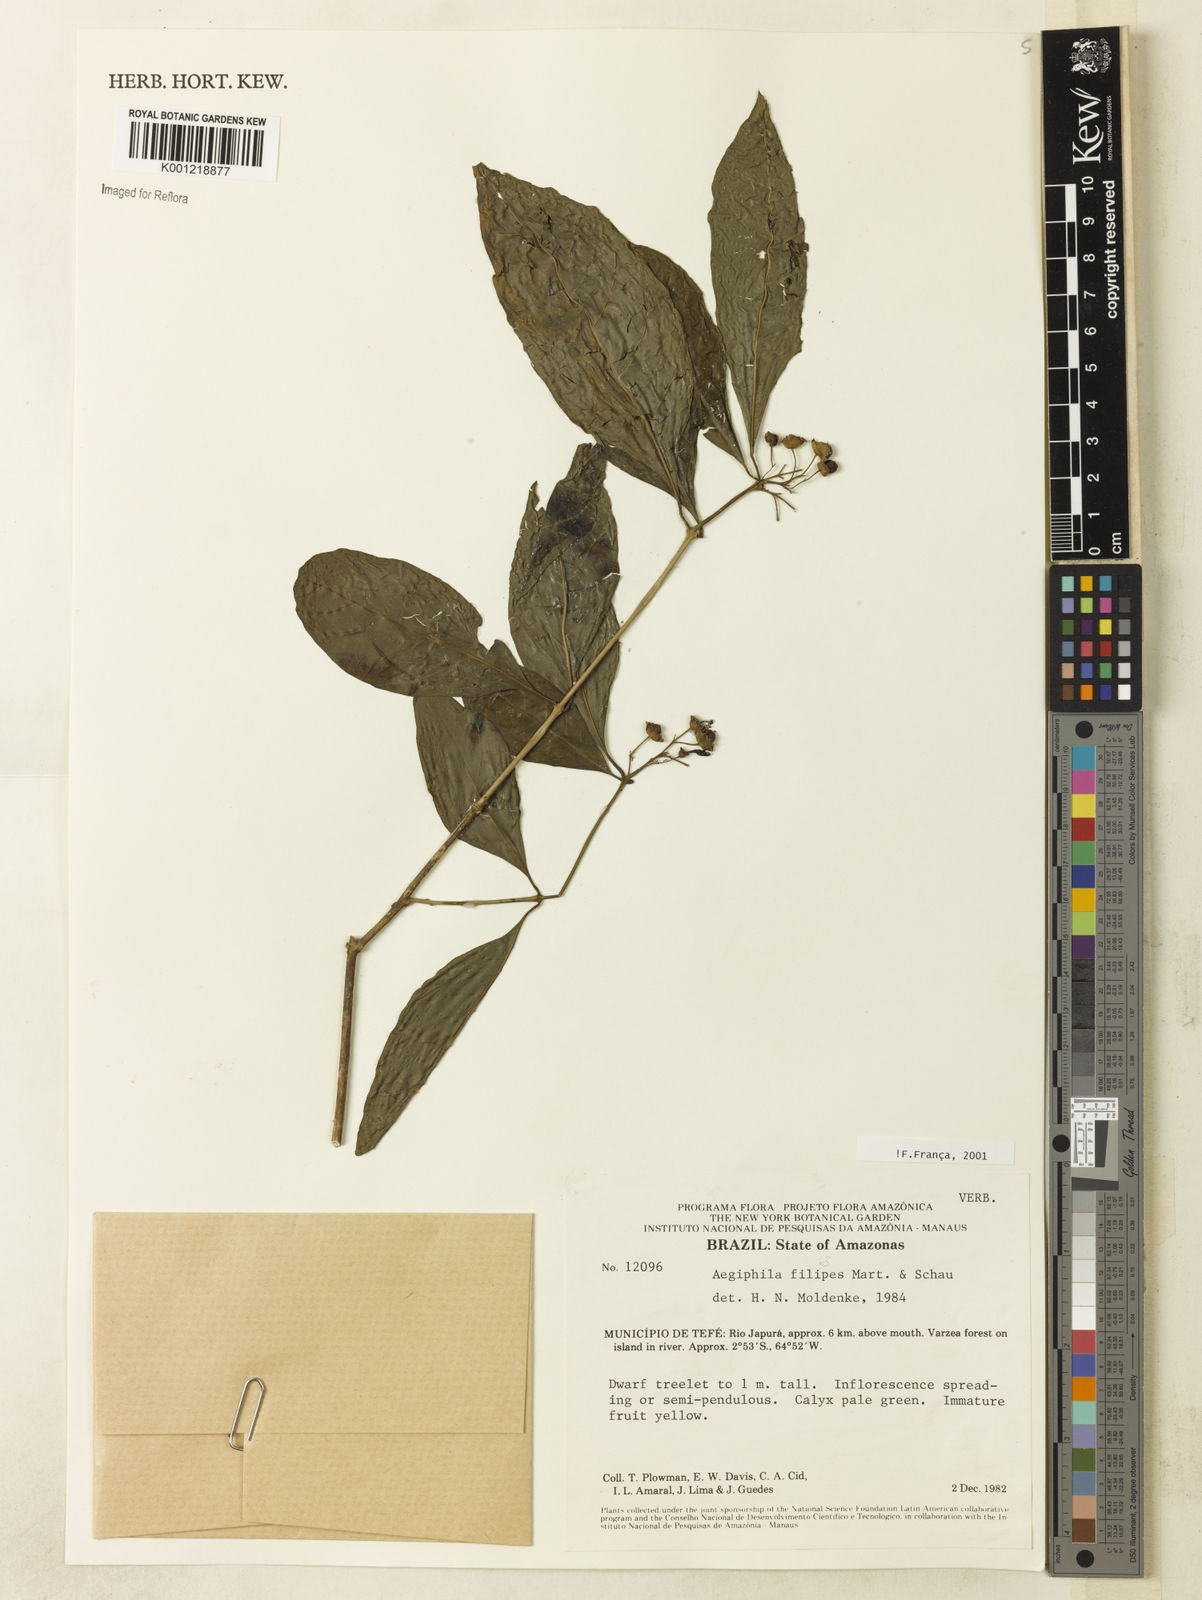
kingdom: Plantae
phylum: Tracheophyta
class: Magnoliopsida
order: Lamiales
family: Lamiaceae
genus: Aegiphila
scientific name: Aegiphila filipes
